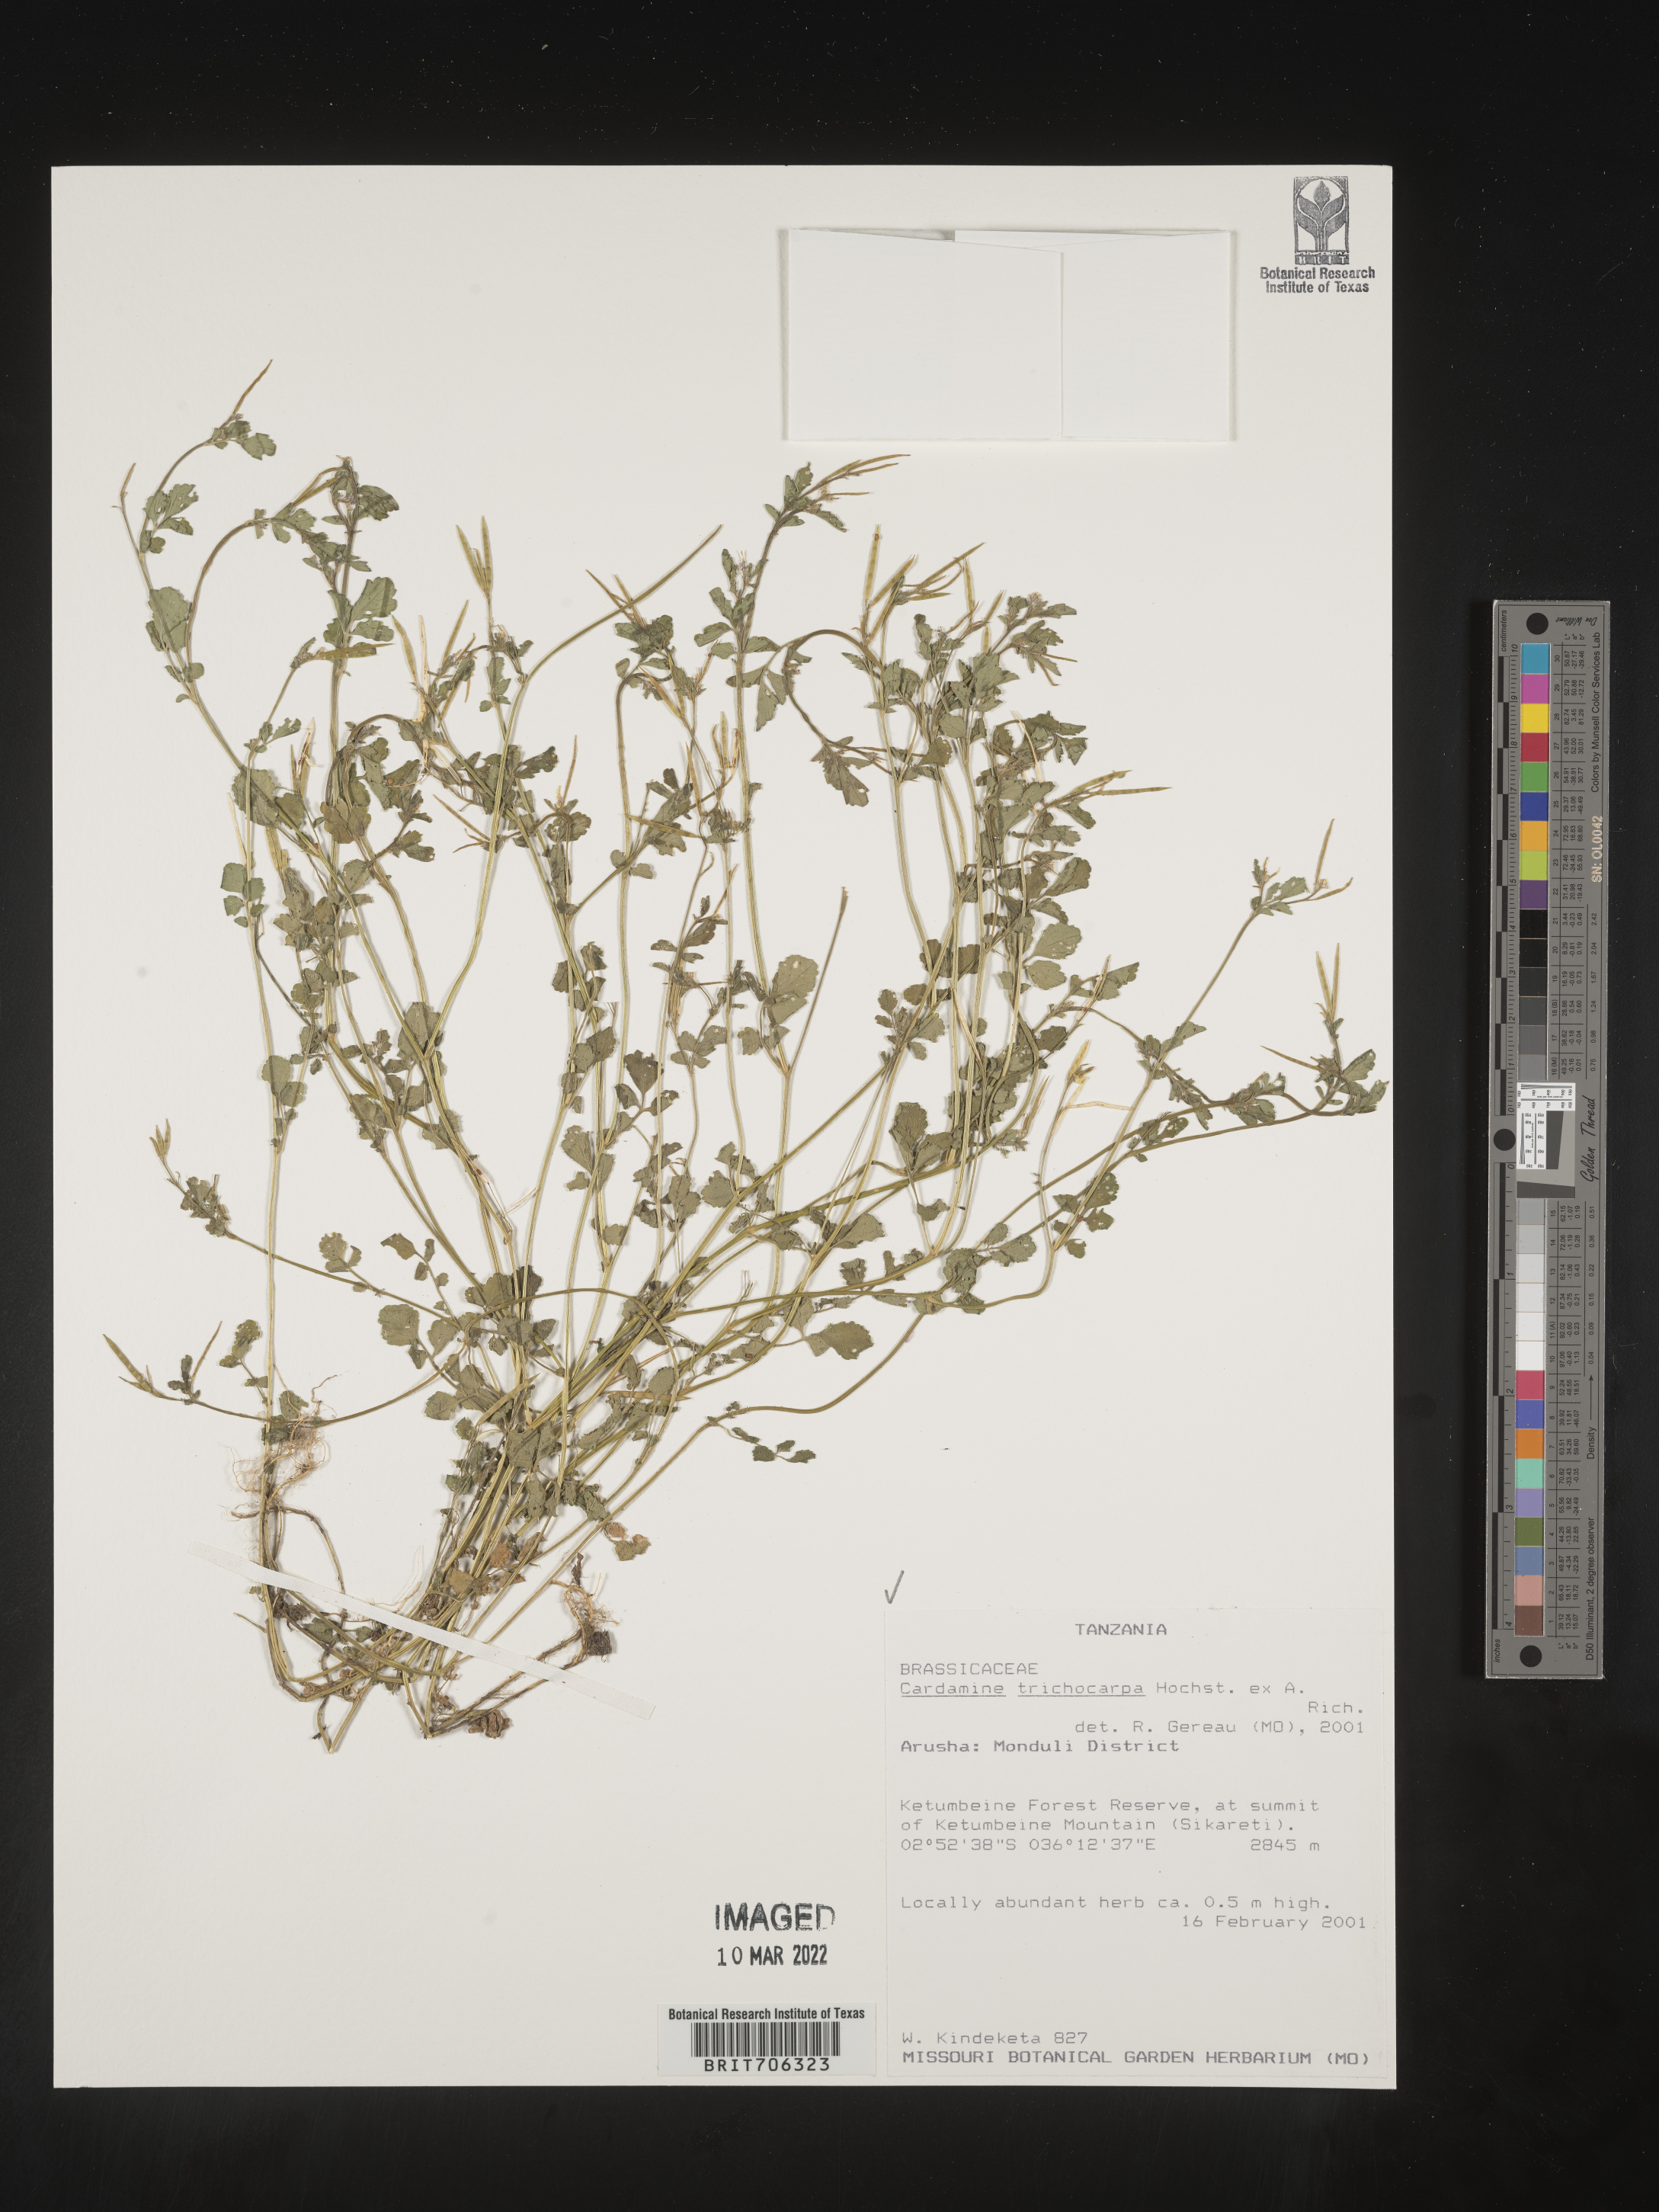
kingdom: Plantae
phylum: Tracheophyta
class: Magnoliopsida
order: Brassicales
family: Brassicaceae
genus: Cardamine
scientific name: Cardamine
